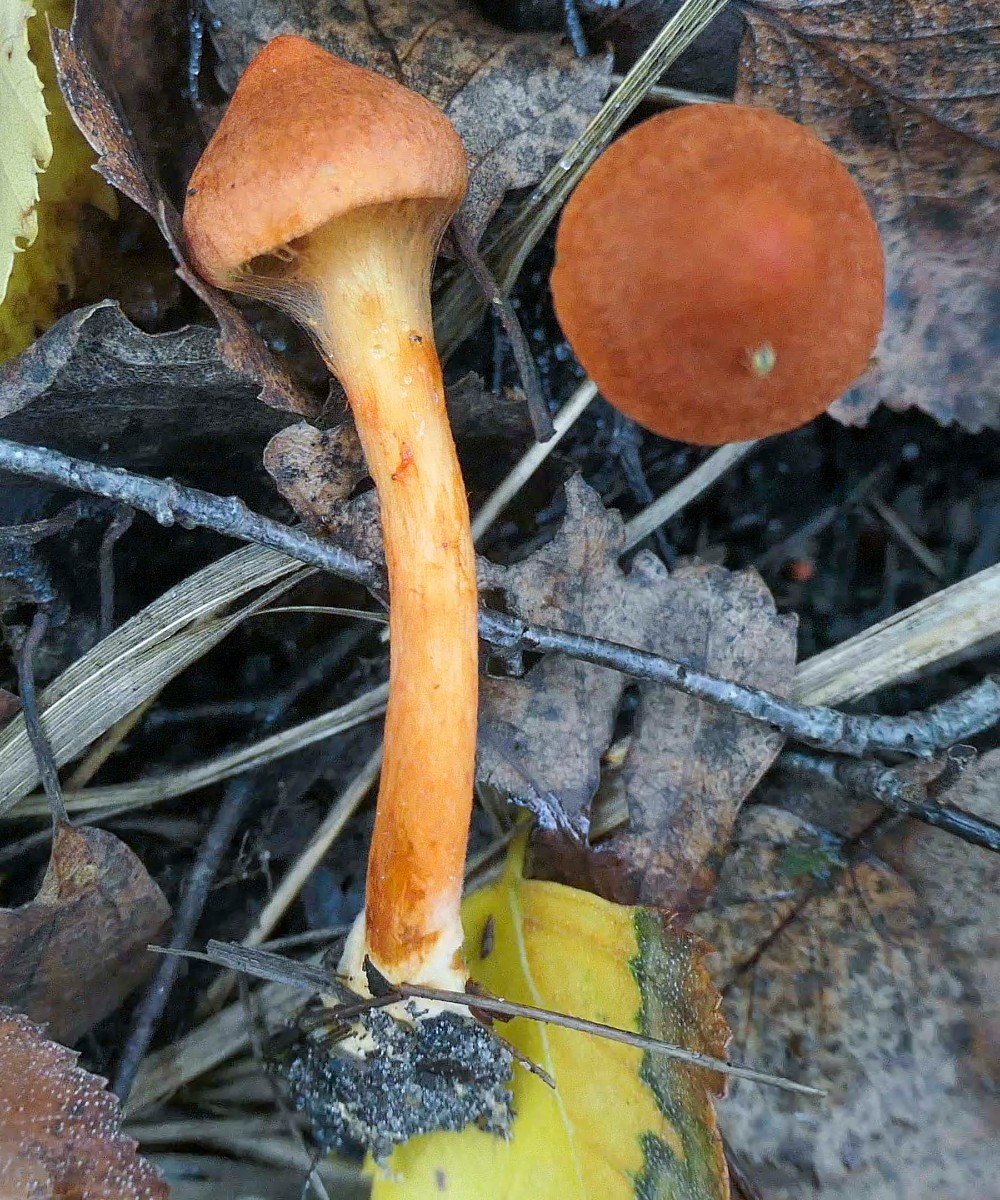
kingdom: Fungi
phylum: Basidiomycota
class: Agaricomycetes
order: Agaricales
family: Cortinariaceae
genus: Cortinarius
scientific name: Cortinarius uliginosus
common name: mose-slørhat
